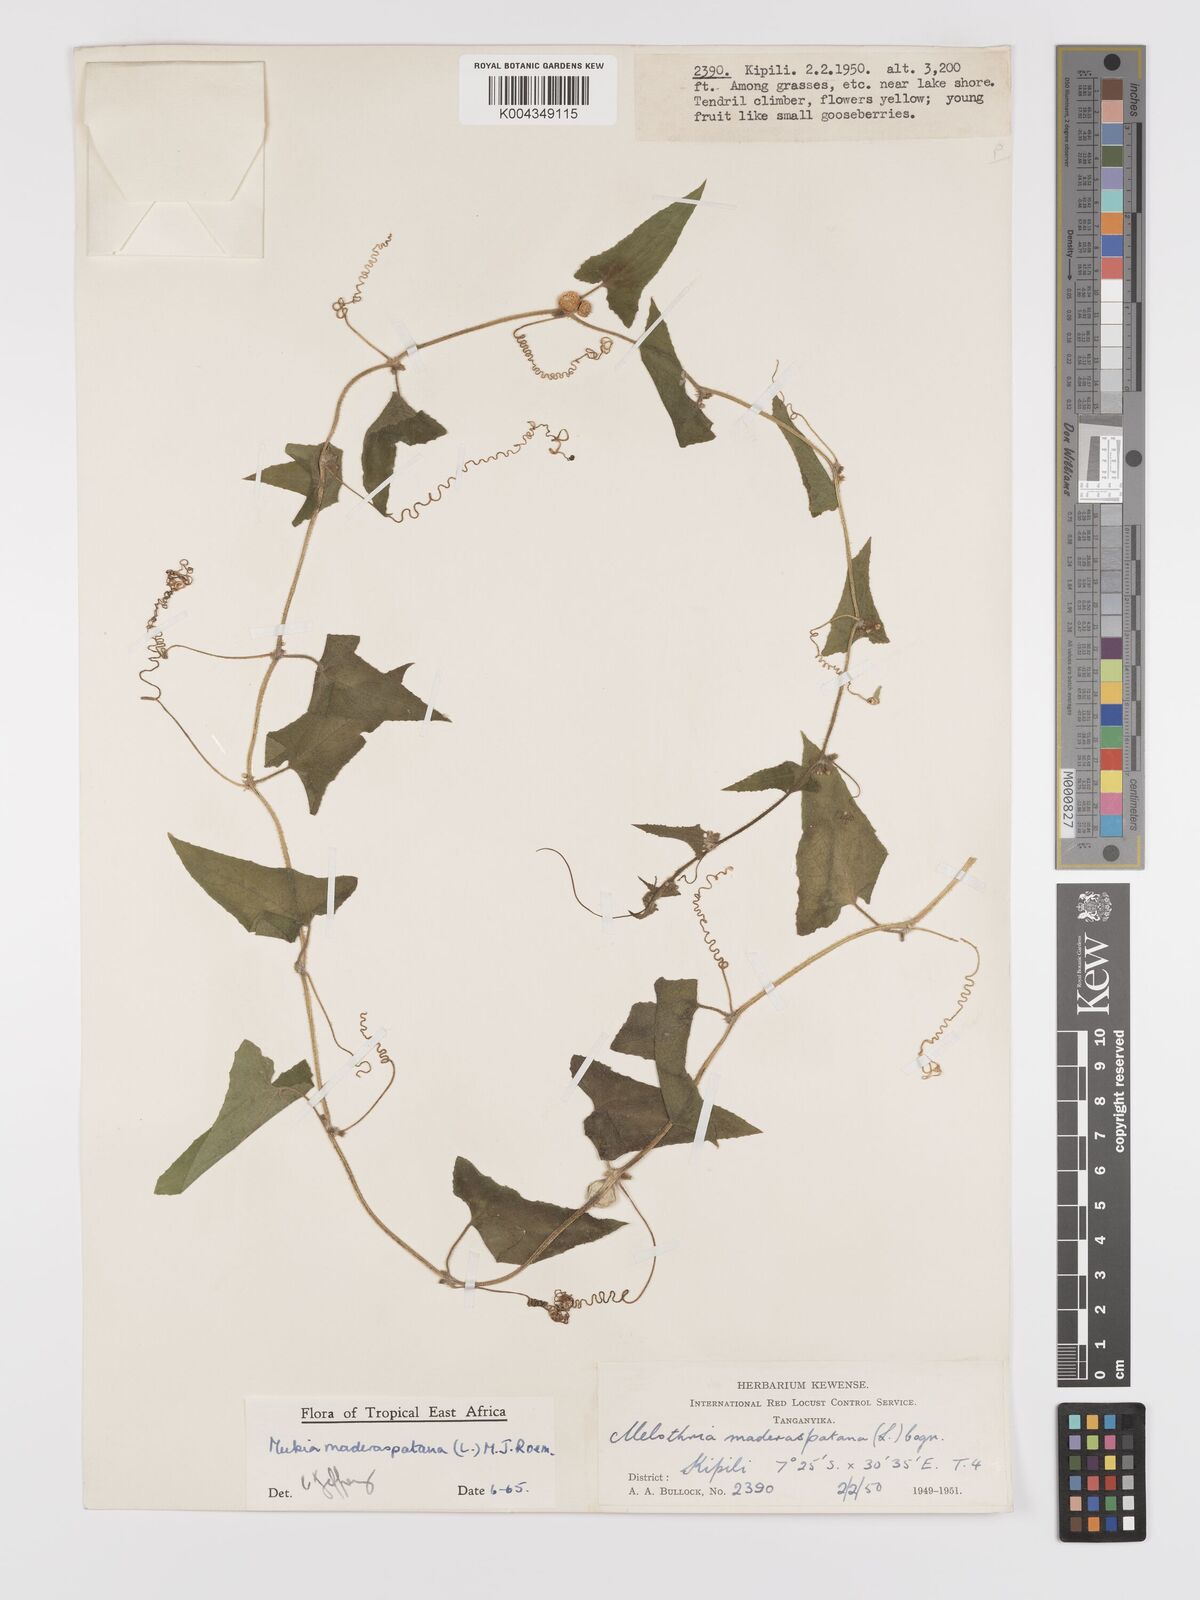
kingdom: Plantae
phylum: Tracheophyta
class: Magnoliopsida
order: Cucurbitales
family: Cucurbitaceae
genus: Cucumis
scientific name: Cucumis maderaspatanus
